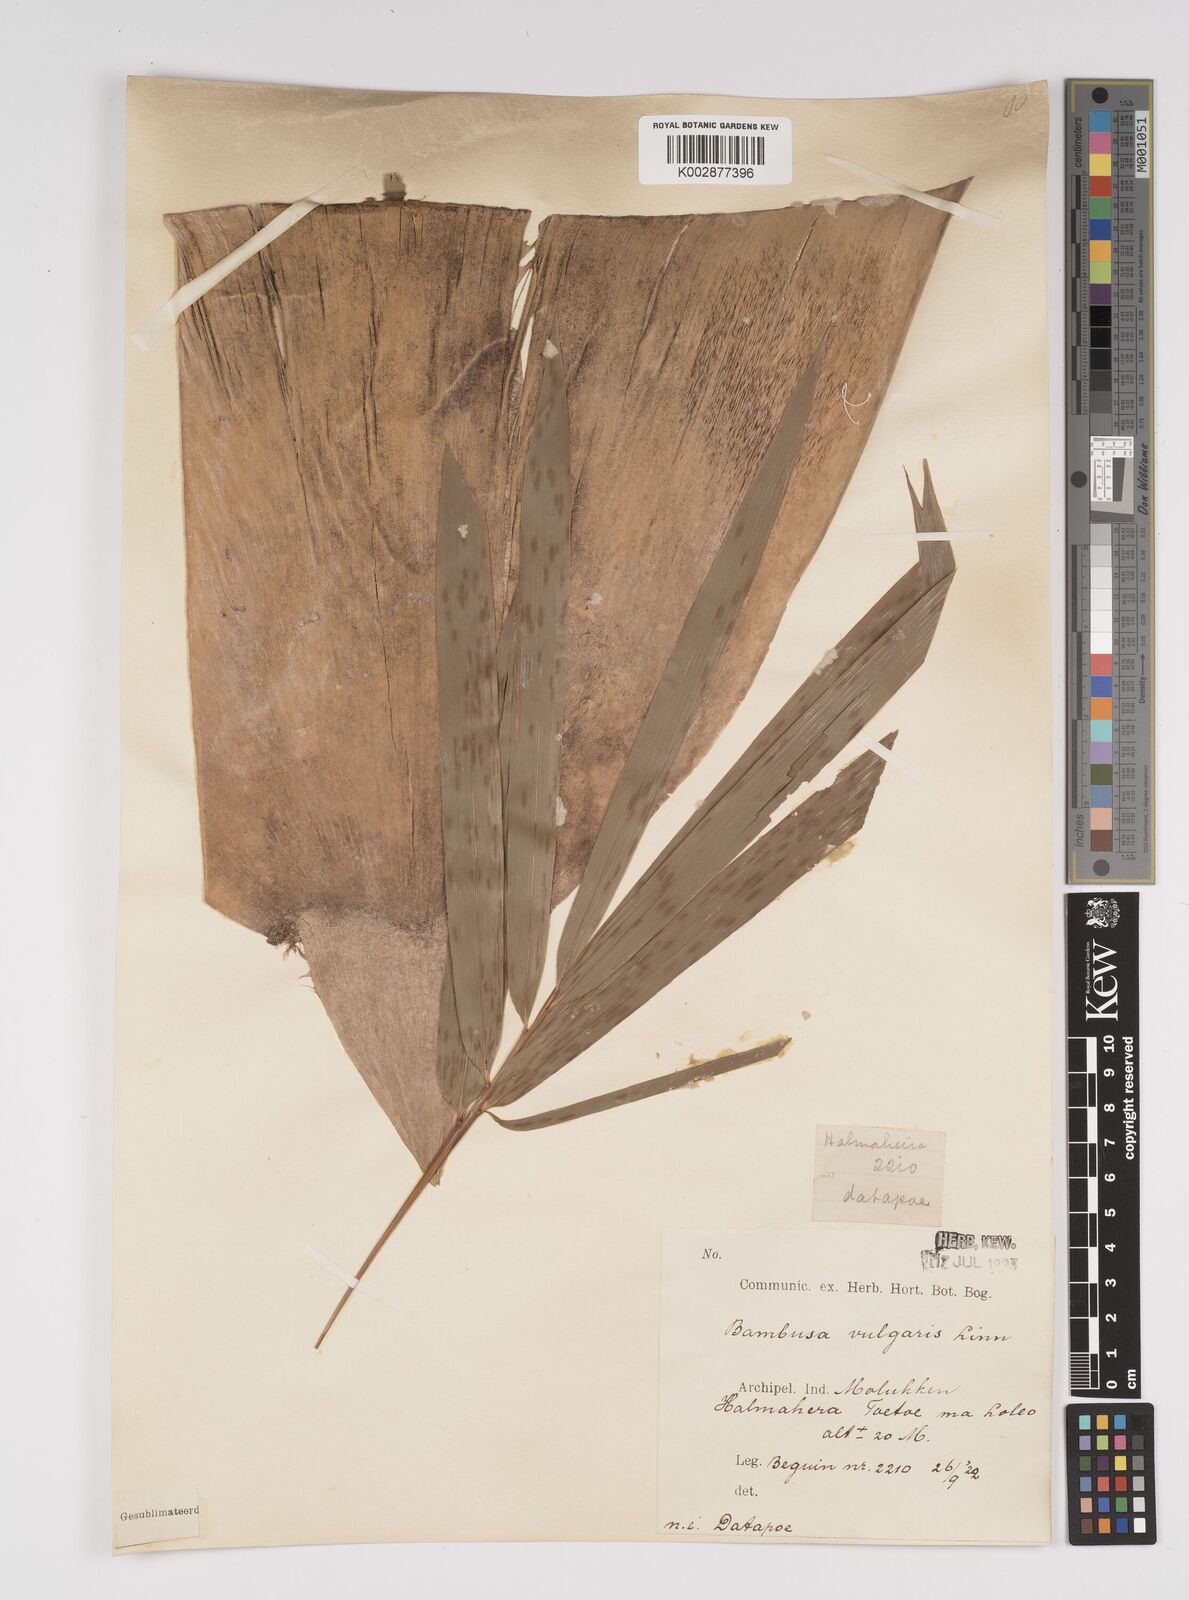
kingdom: Plantae
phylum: Tracheophyta
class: Liliopsida
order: Poales
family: Poaceae
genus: Bambusa
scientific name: Bambusa
